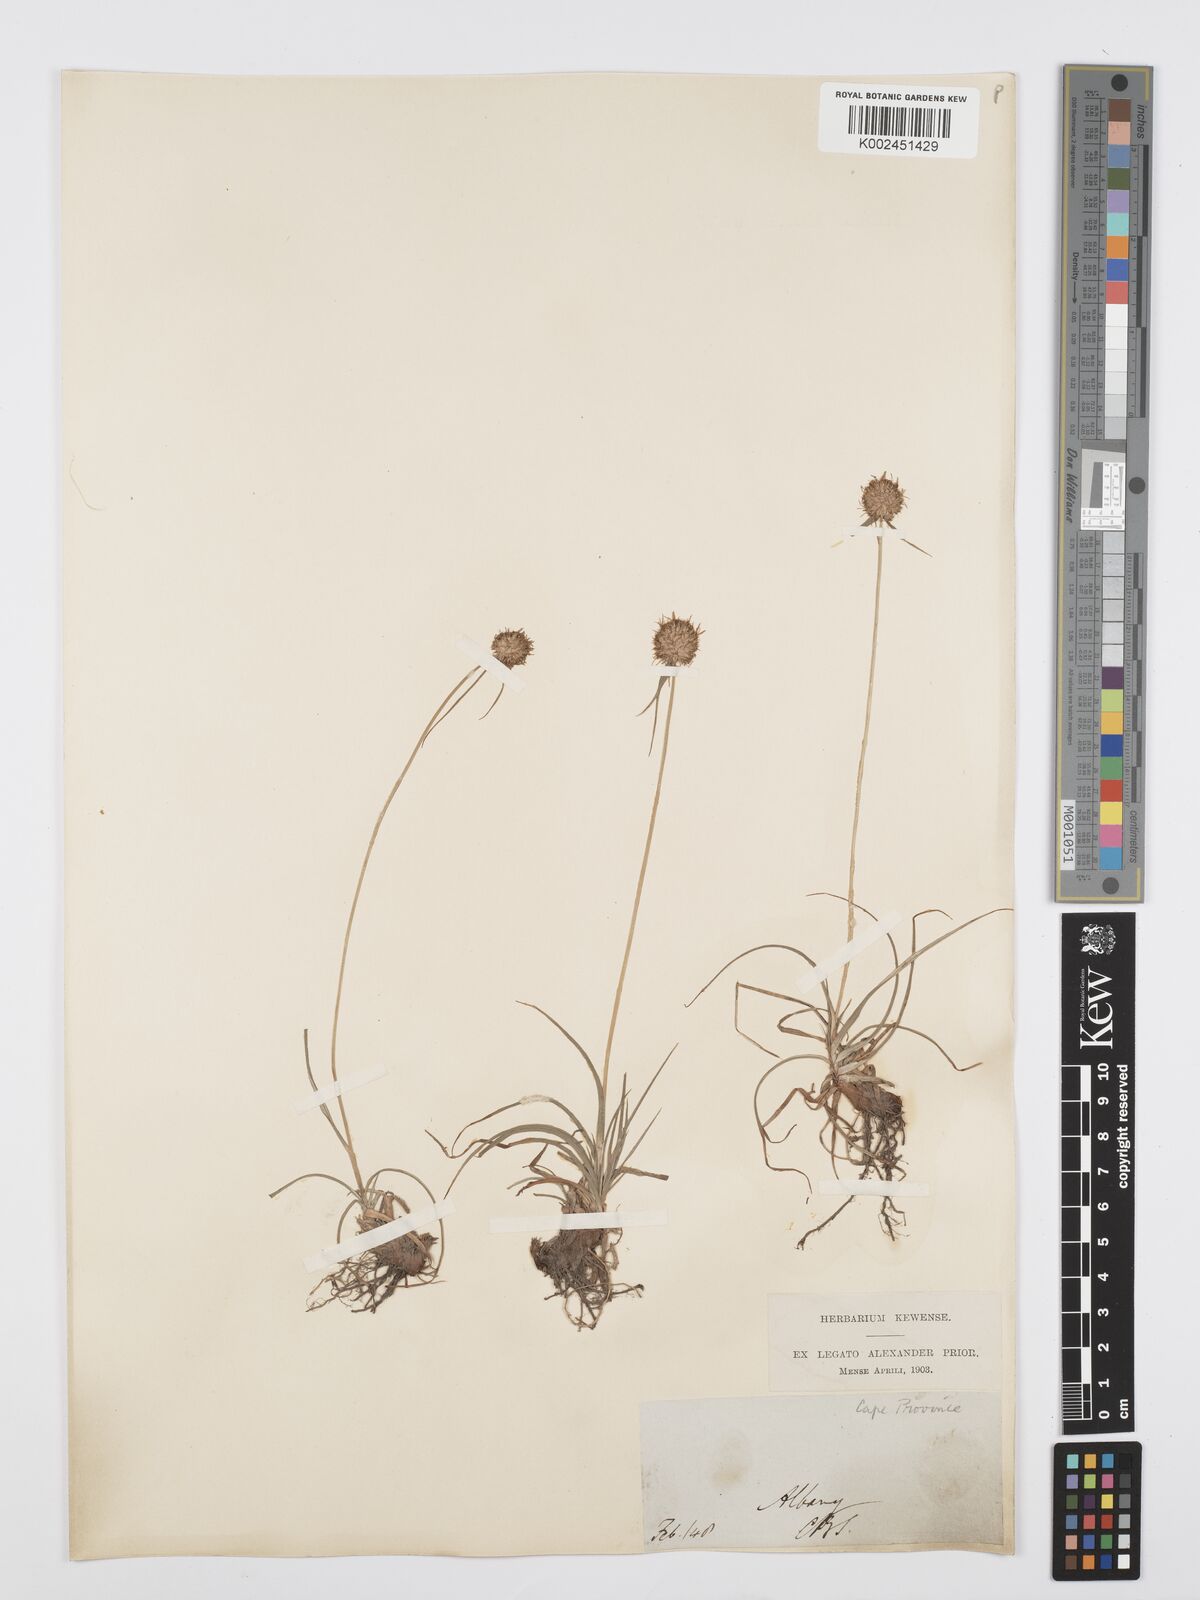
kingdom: Plantae
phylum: Tracheophyta
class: Liliopsida
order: Poales
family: Cyperaceae
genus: Cyperus
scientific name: Cyperus alatus
